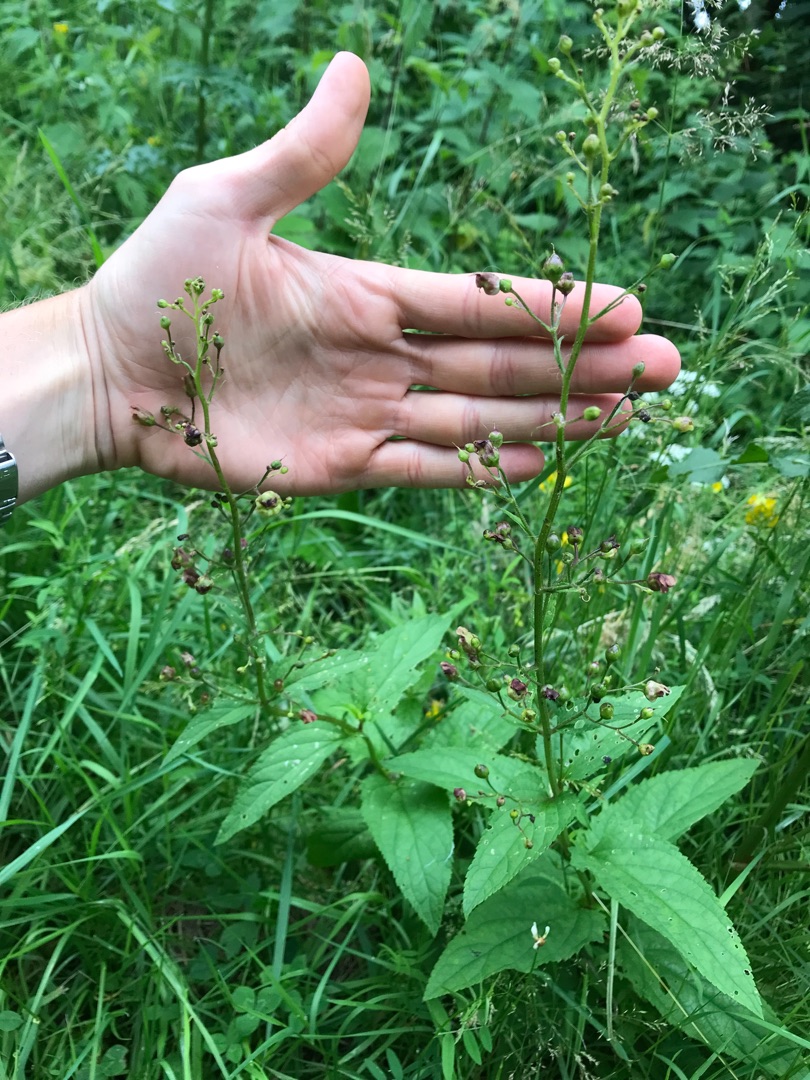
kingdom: Plantae
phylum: Tracheophyta
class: Magnoliopsida
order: Lamiales
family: Scrophulariaceae
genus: Scrophularia
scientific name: Scrophularia nodosa
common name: Knoldet brunrod
